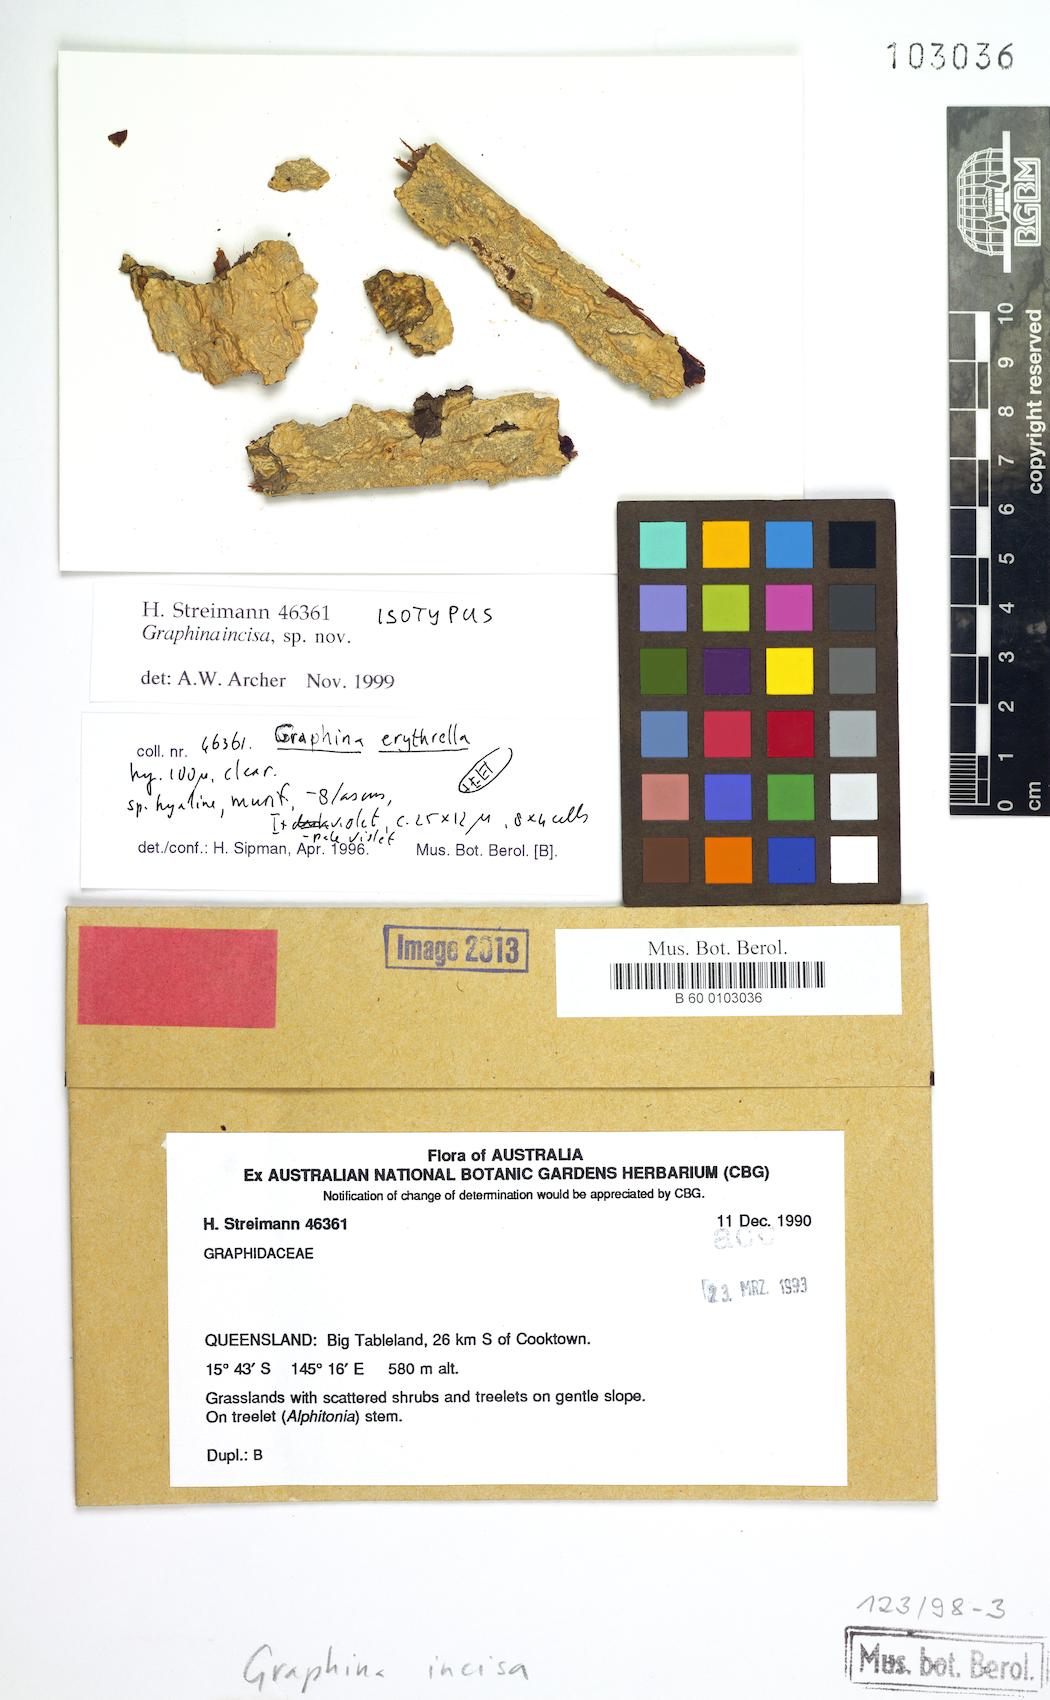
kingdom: Fungi
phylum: Ascomycota
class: Lecanoromycetes
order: Ostropales
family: Graphidaceae
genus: Diorygma
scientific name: Diorygma erythrellum
